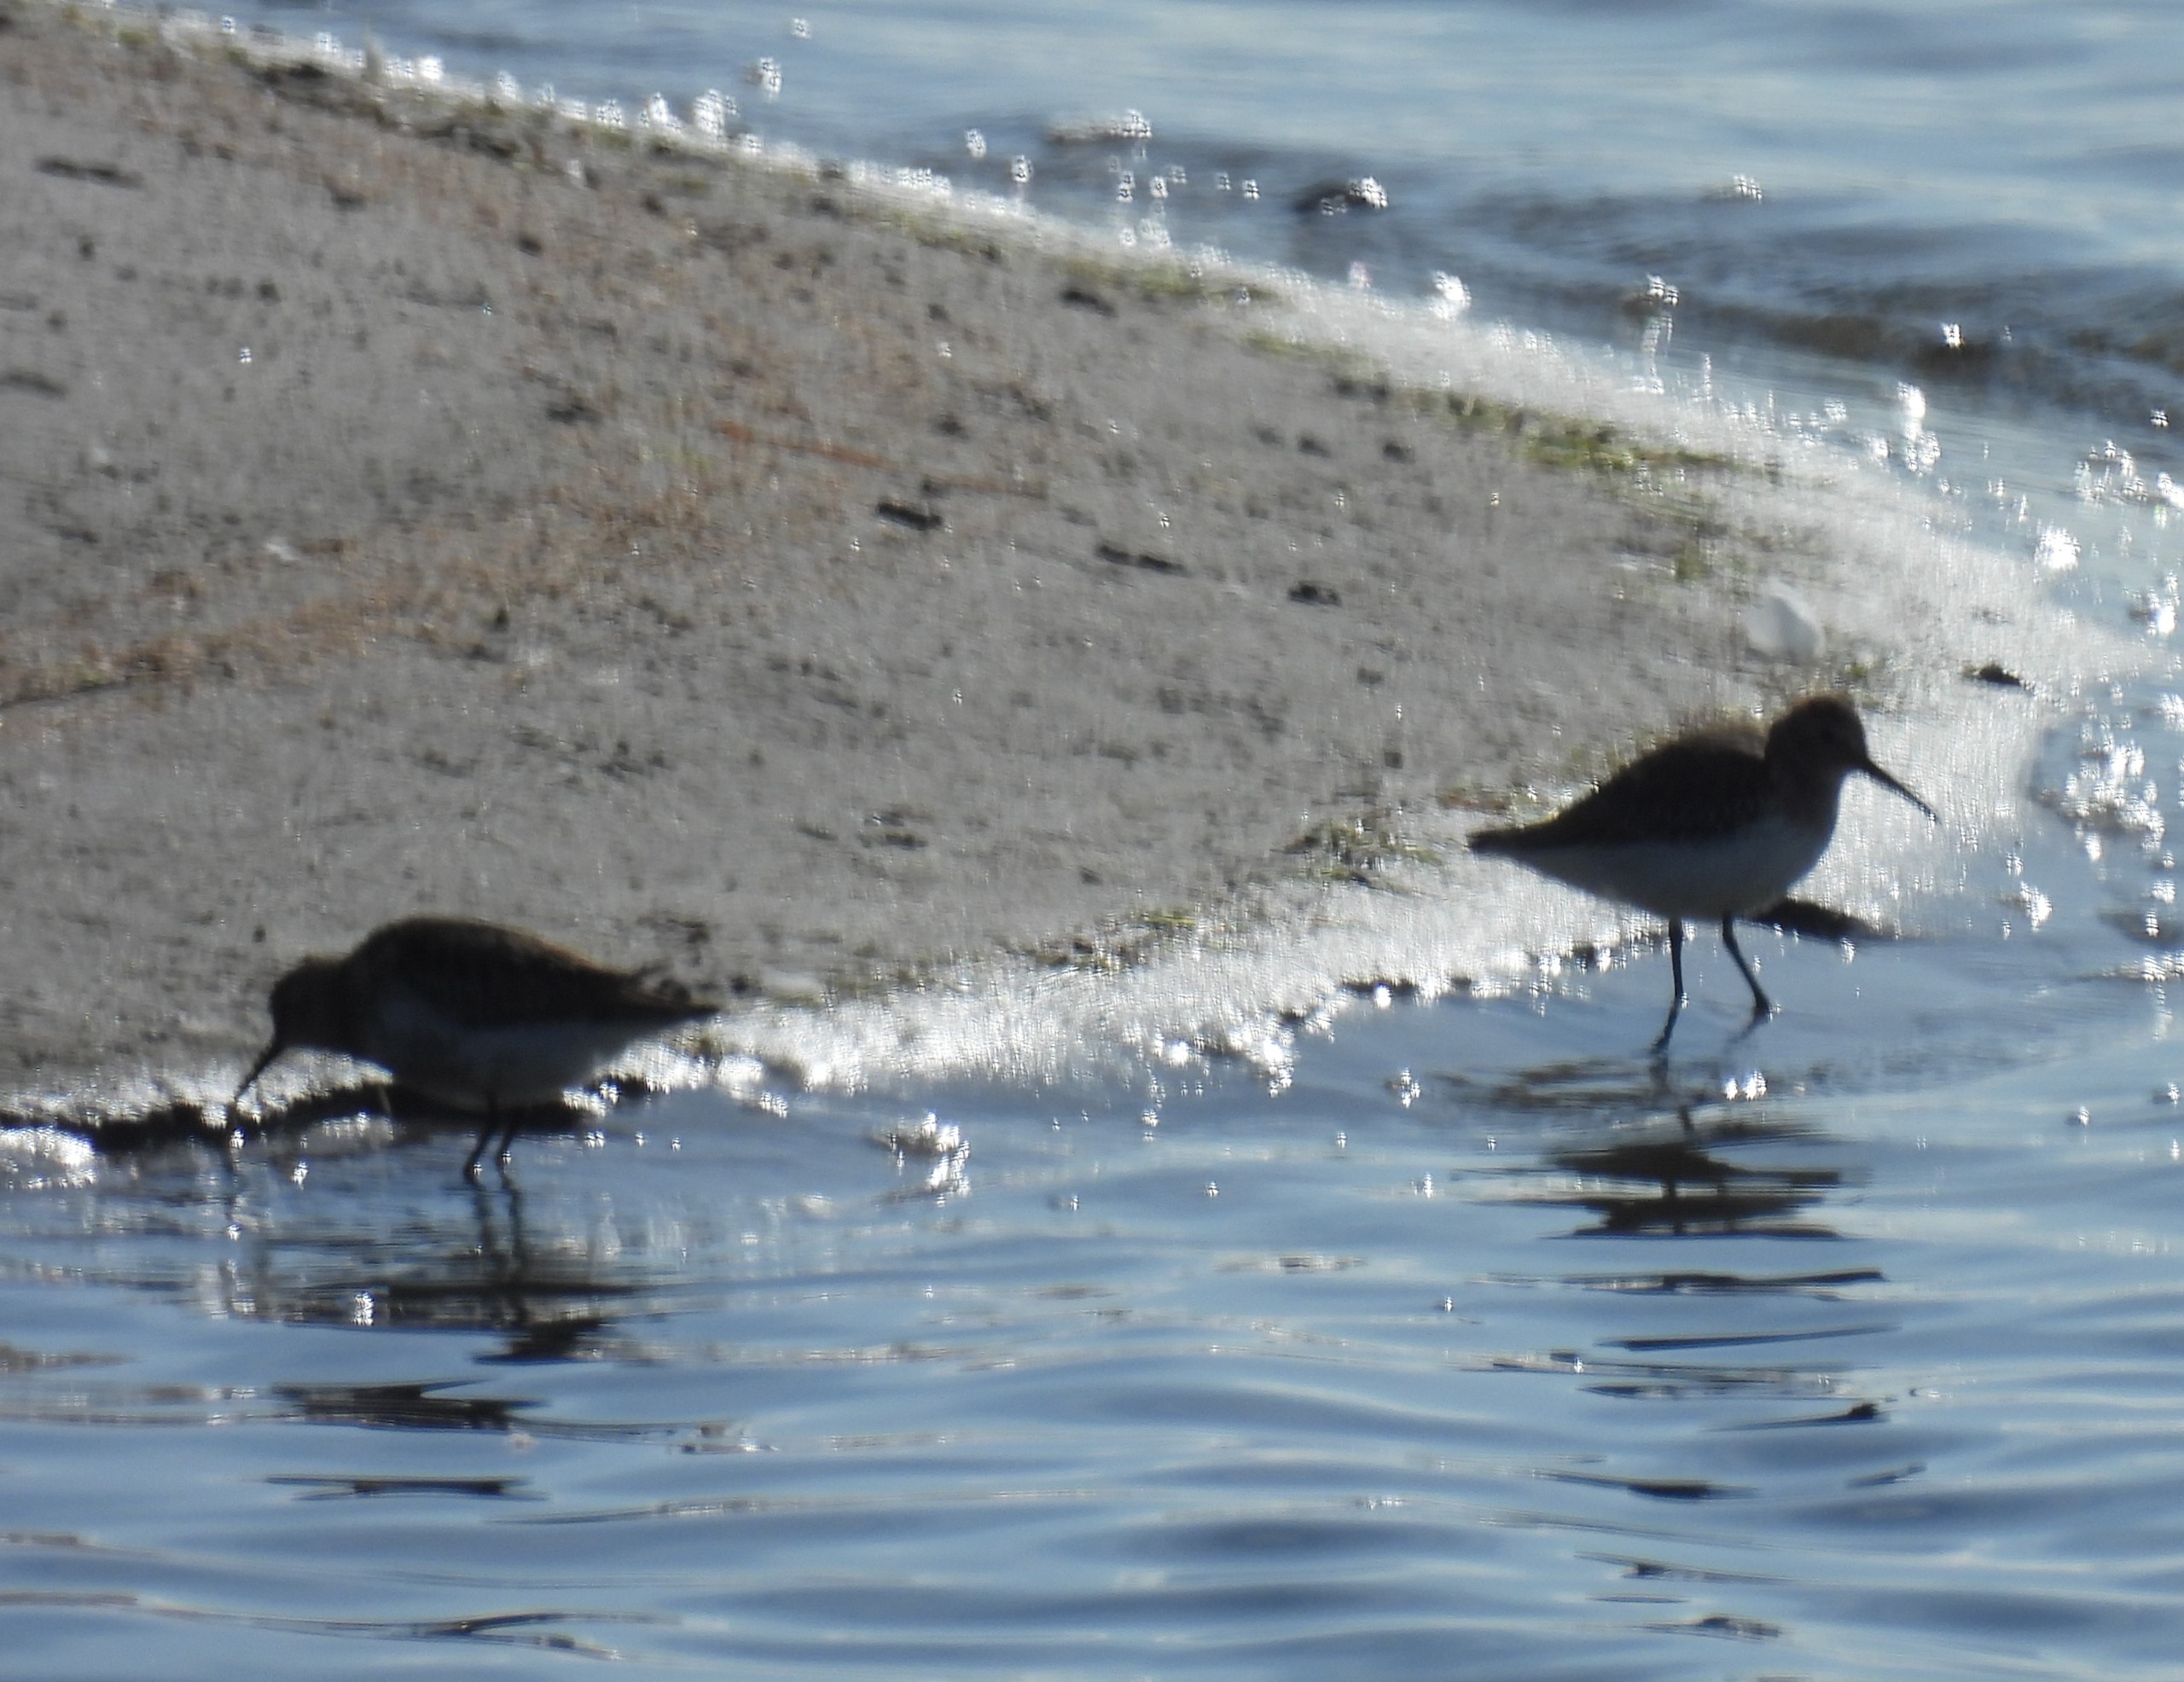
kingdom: Animalia
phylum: Chordata
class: Aves
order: Charadriiformes
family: Scolopacidae
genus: Calidris
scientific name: Calidris alpina
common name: Almindelig ryle
